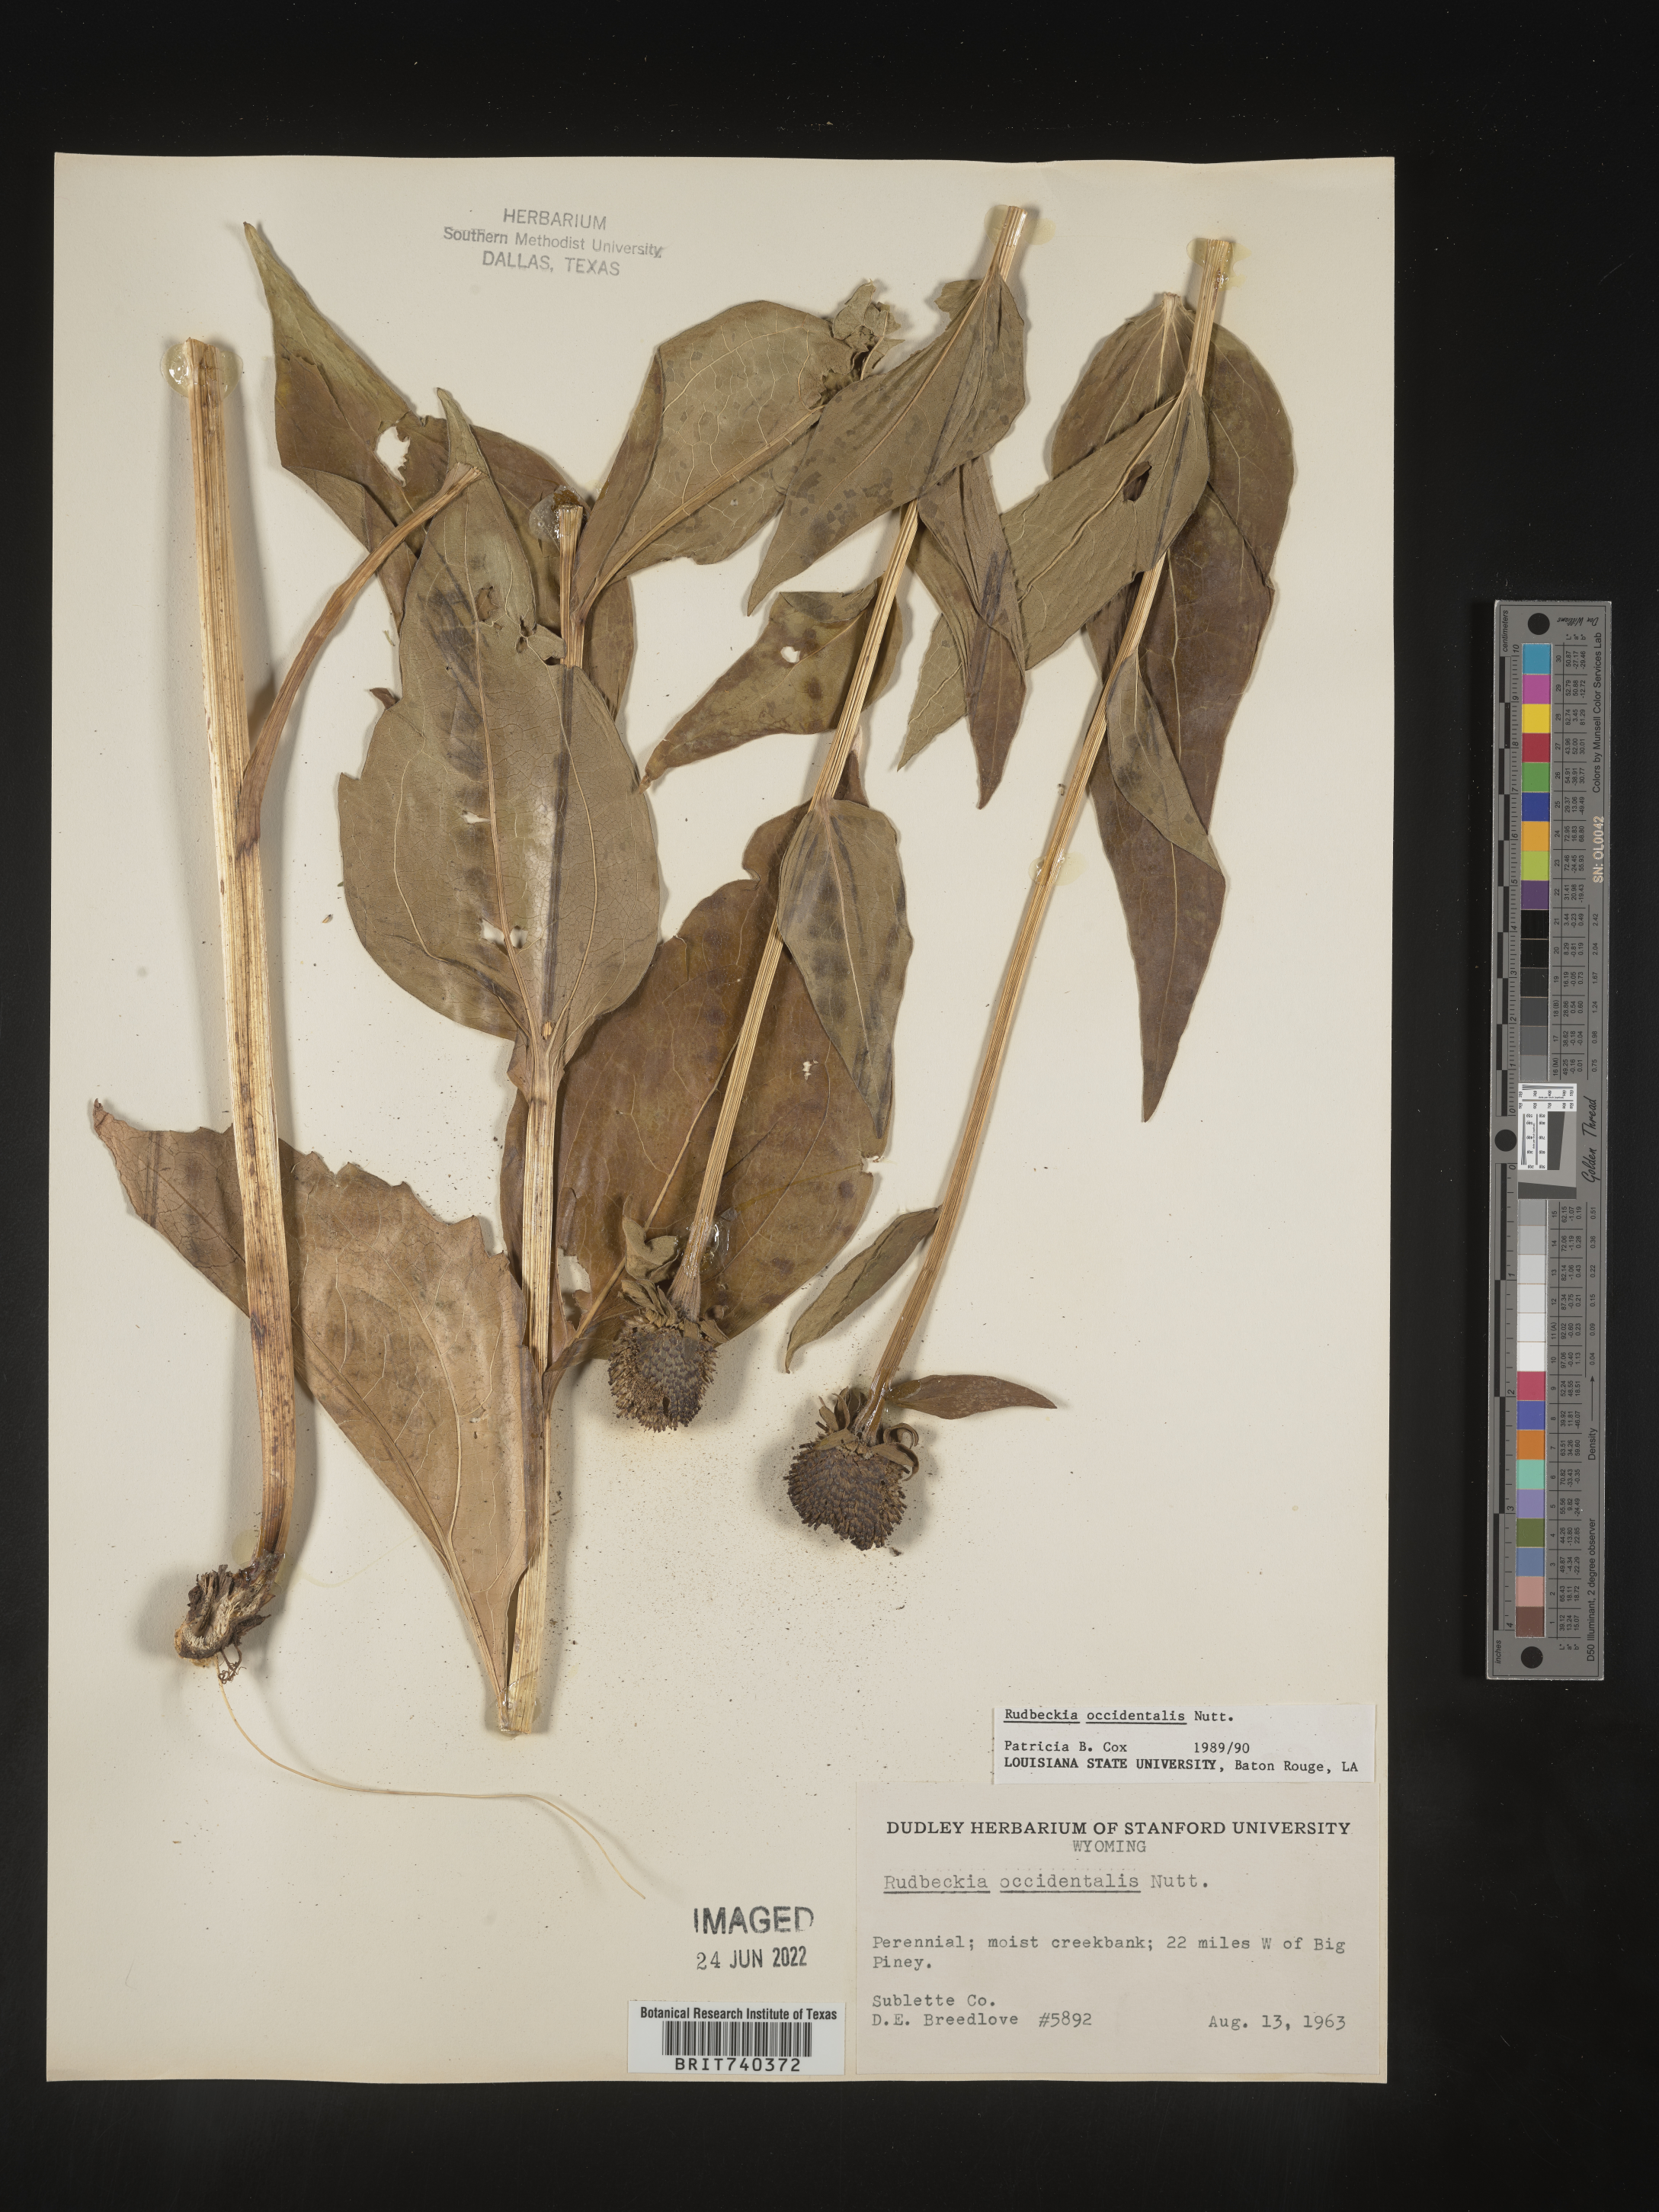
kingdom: Plantae
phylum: Tracheophyta
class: Magnoliopsida
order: Asterales
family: Asteraceae
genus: Rudbeckia
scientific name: Rudbeckia
